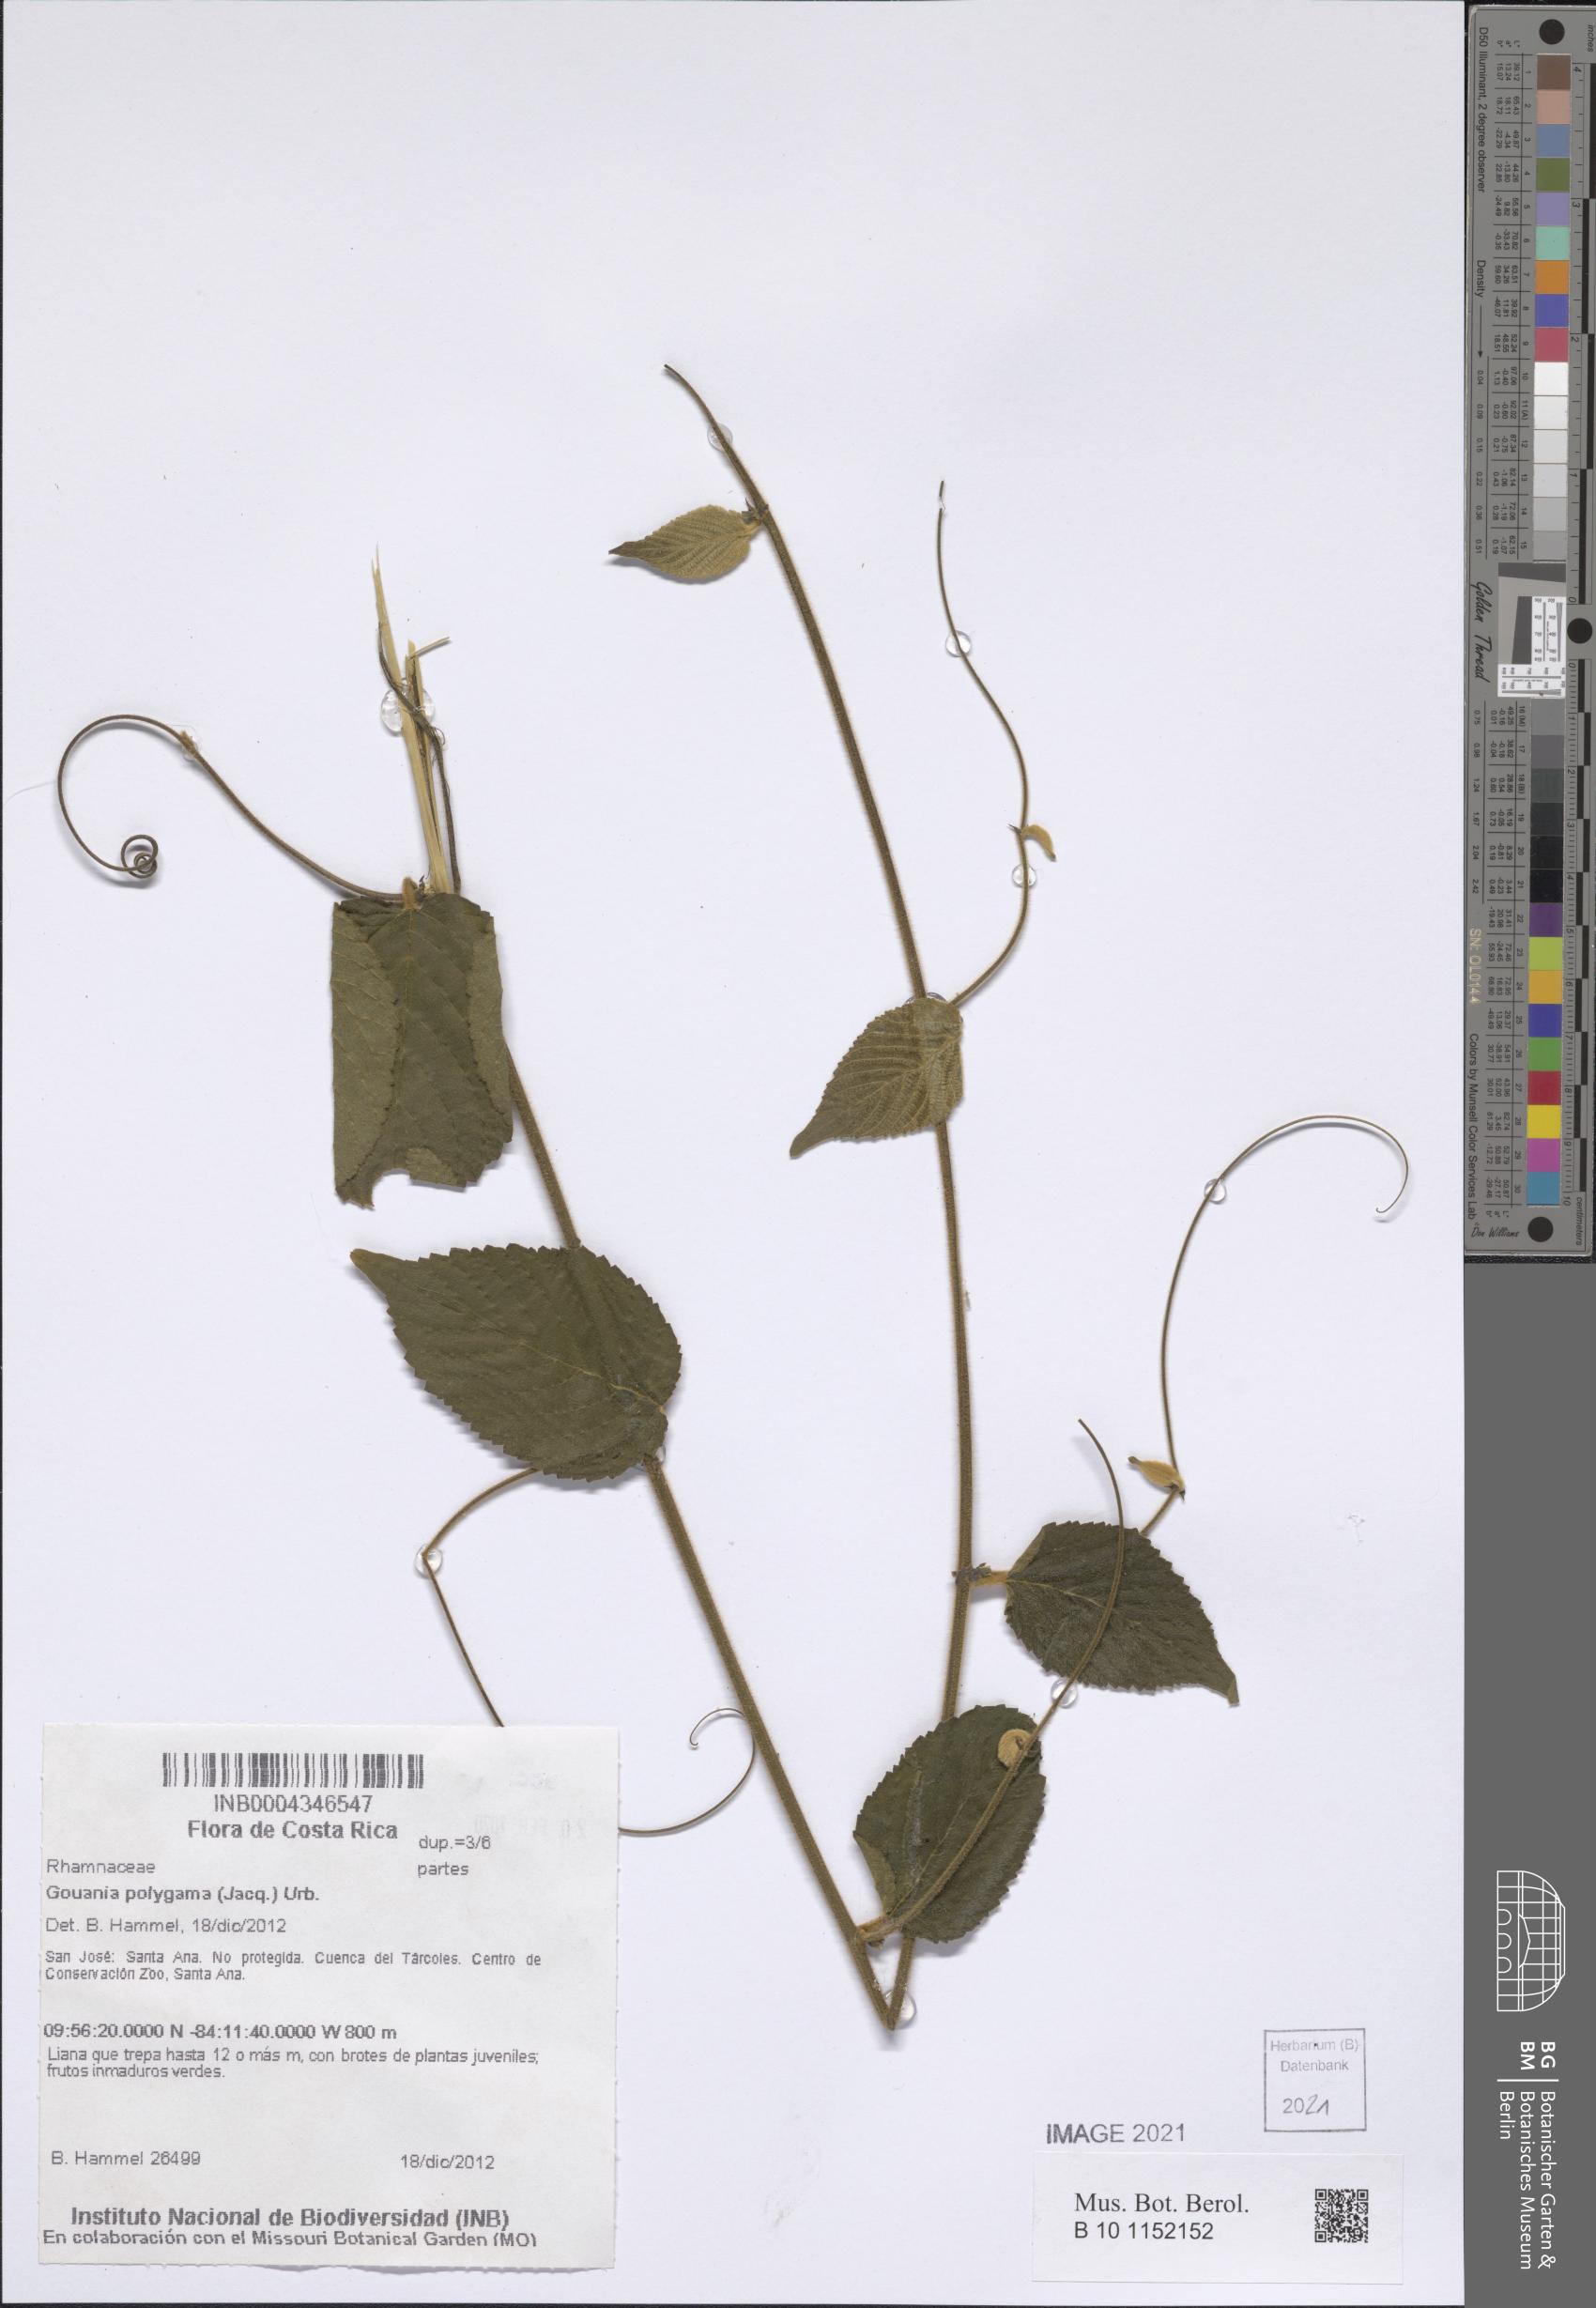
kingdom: Plantae
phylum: Tracheophyta
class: Magnoliopsida
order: Rosales
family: Rhamnaceae
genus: Gouania
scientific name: Gouania polygama
